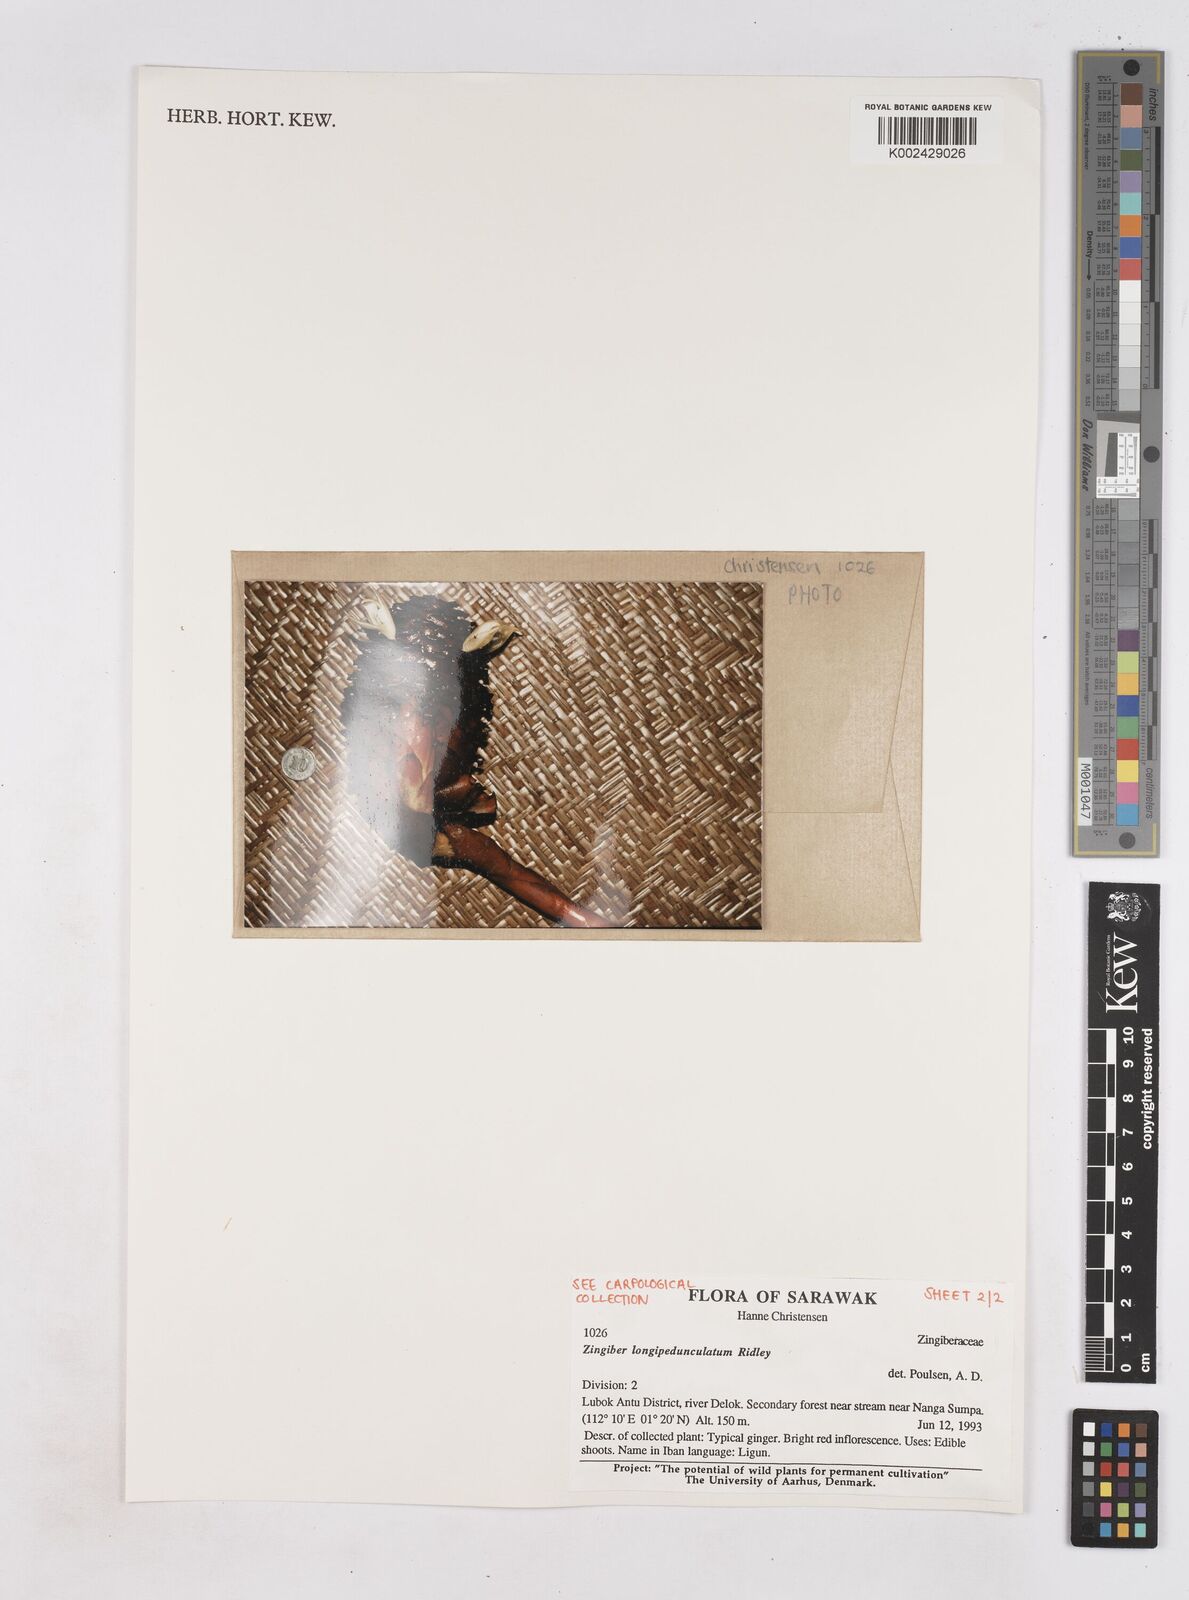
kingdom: Plantae
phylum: Tracheophyta
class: Liliopsida
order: Zingiberales
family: Zingiberaceae
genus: Zingiber
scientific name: Zingiber longipedunculatum
